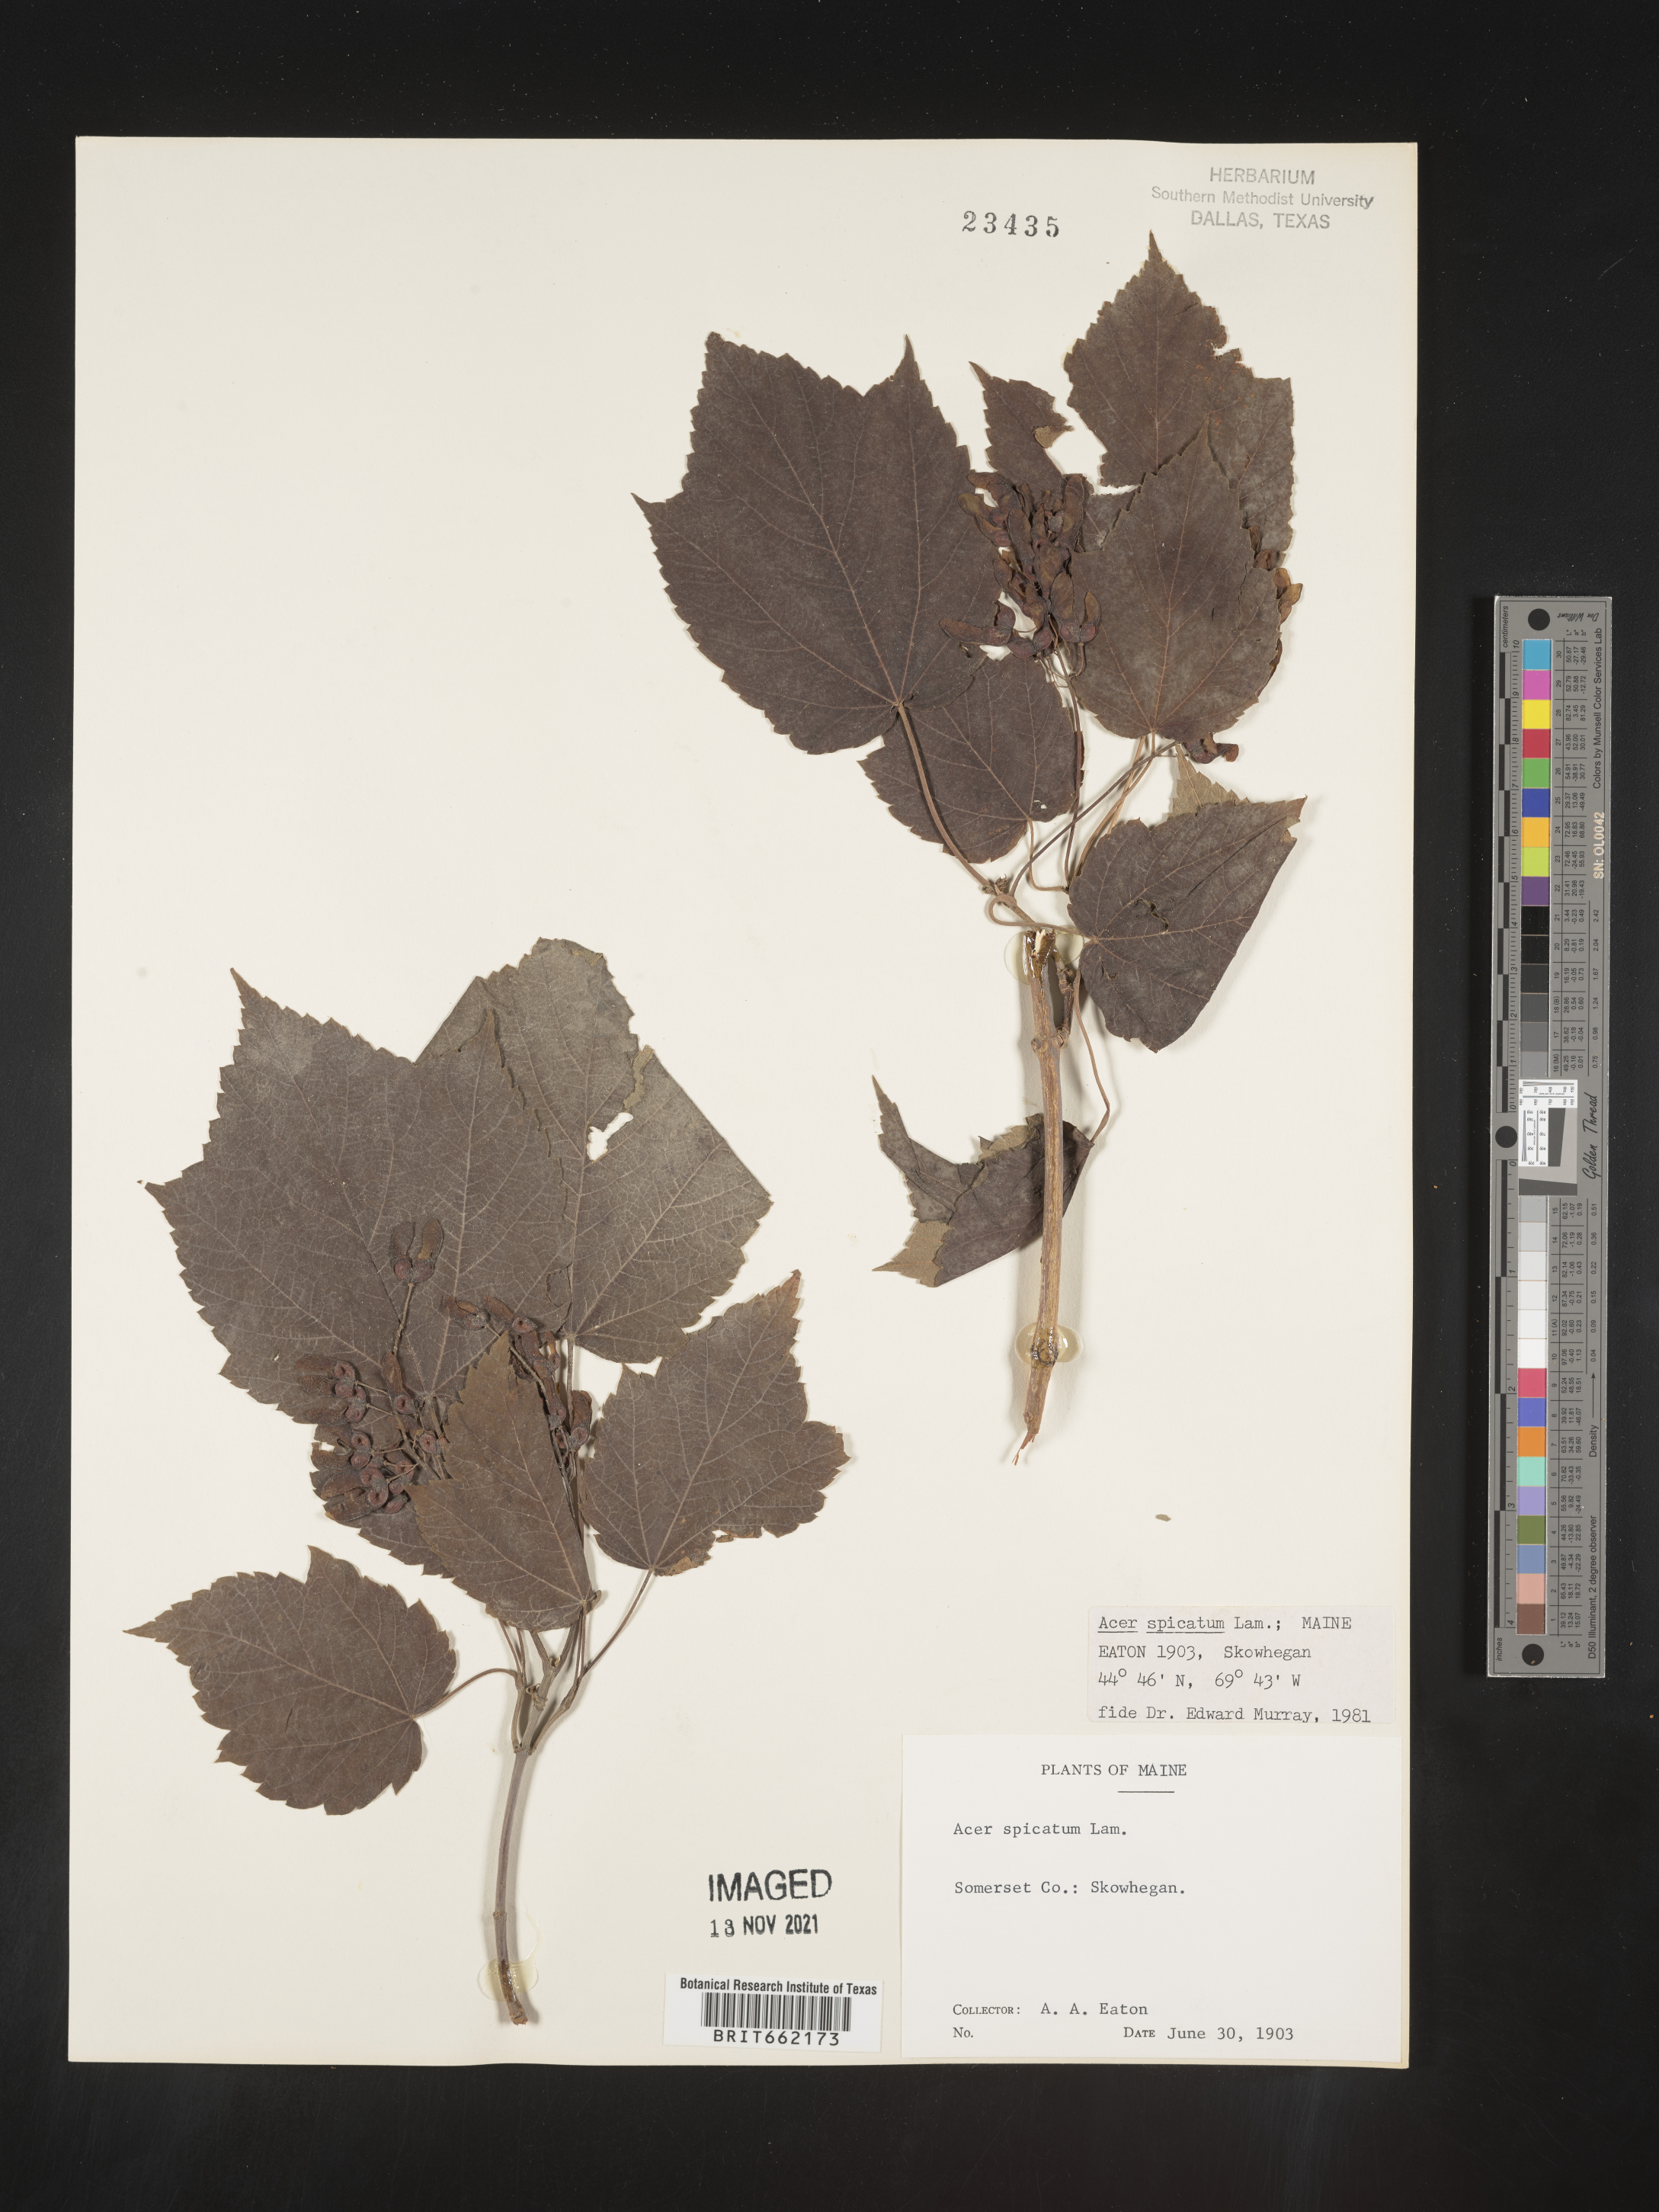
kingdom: Plantae
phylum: Tracheophyta
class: Magnoliopsida
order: Sapindales
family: Sapindaceae
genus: Acer
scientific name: Acer spicatum
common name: Mountain maple
